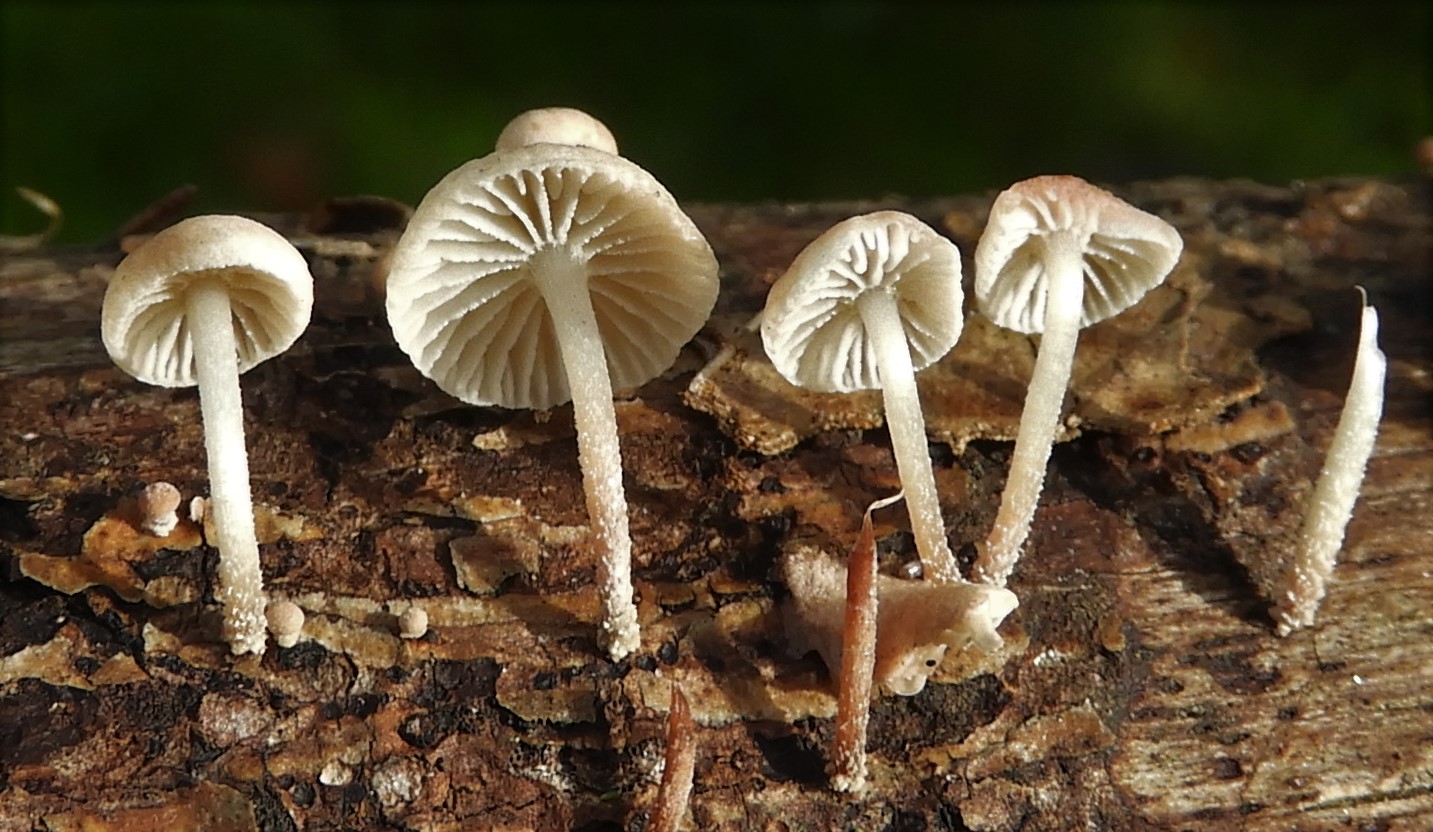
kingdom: Fungi
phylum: Basidiomycota
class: Agaricomycetes
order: Agaricales
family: Omphalotaceae
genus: Collybiopsis
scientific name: Collybiopsis ramealis
